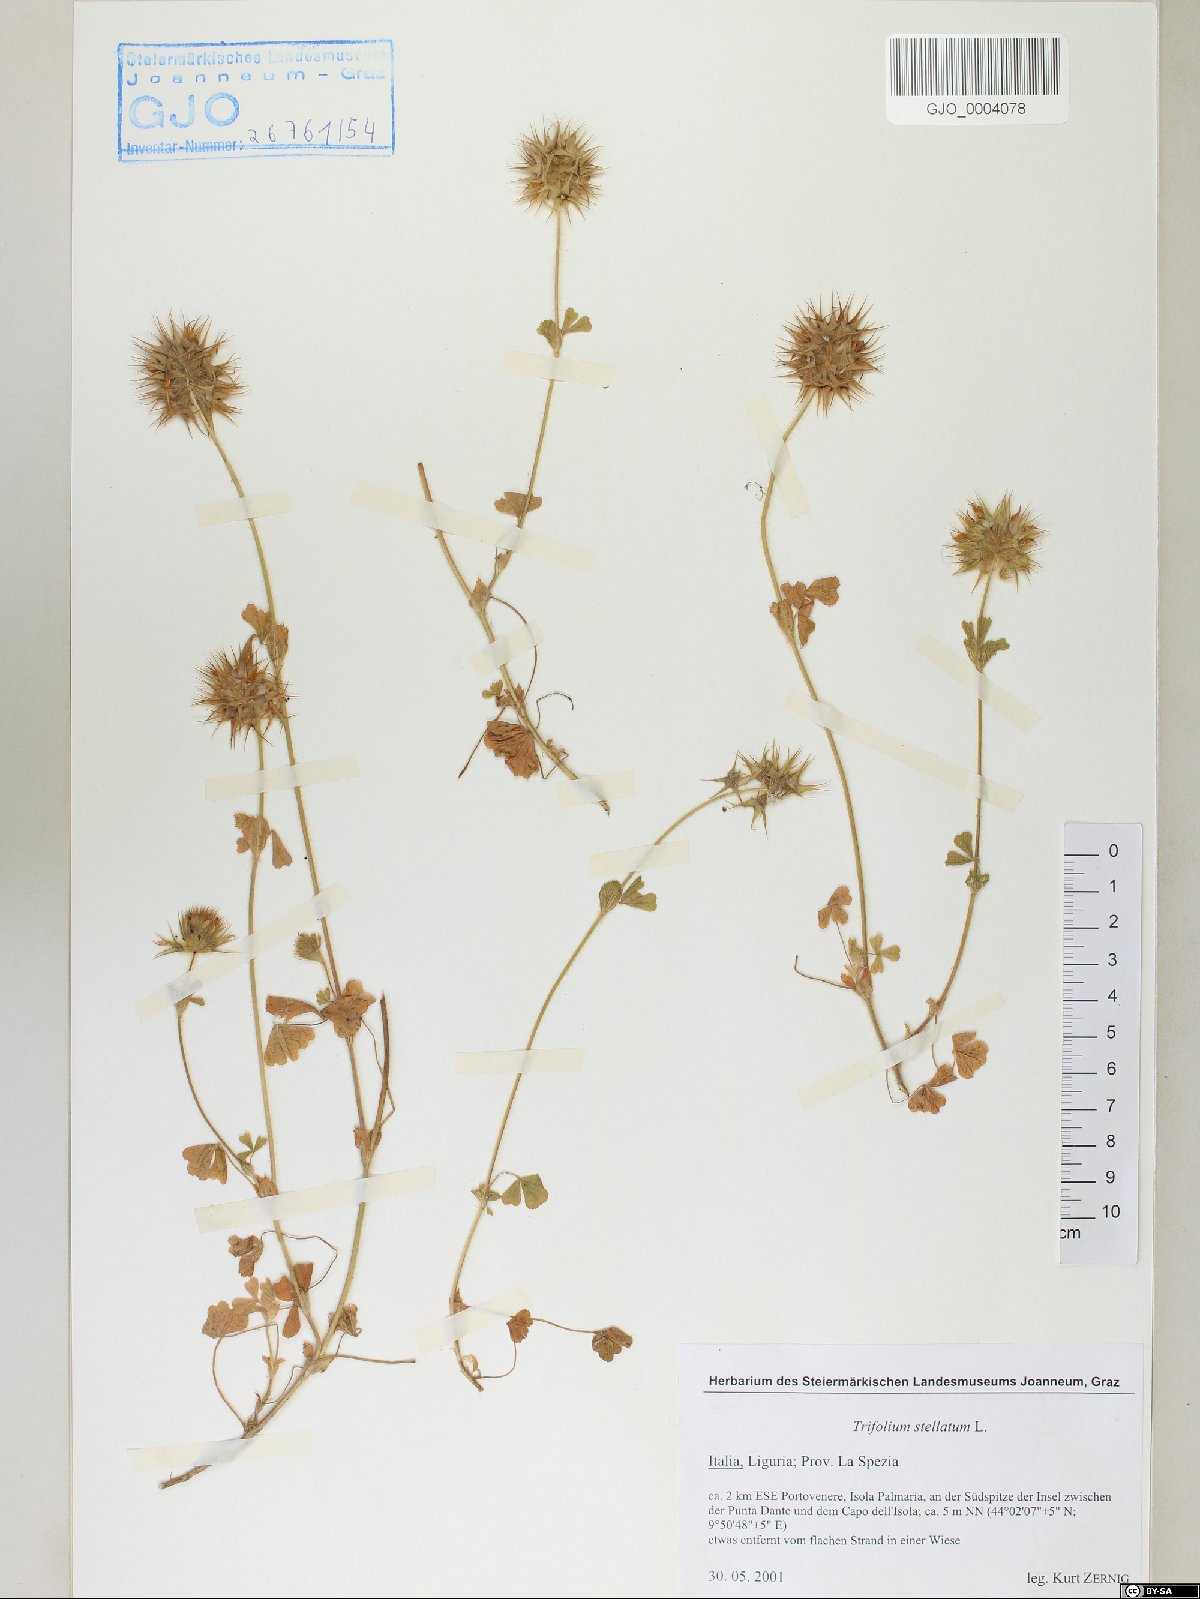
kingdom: Plantae
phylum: Tracheophyta
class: Magnoliopsida
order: Fabales
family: Fabaceae
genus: Trifolium
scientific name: Trifolium stellatum
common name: Starry clover
